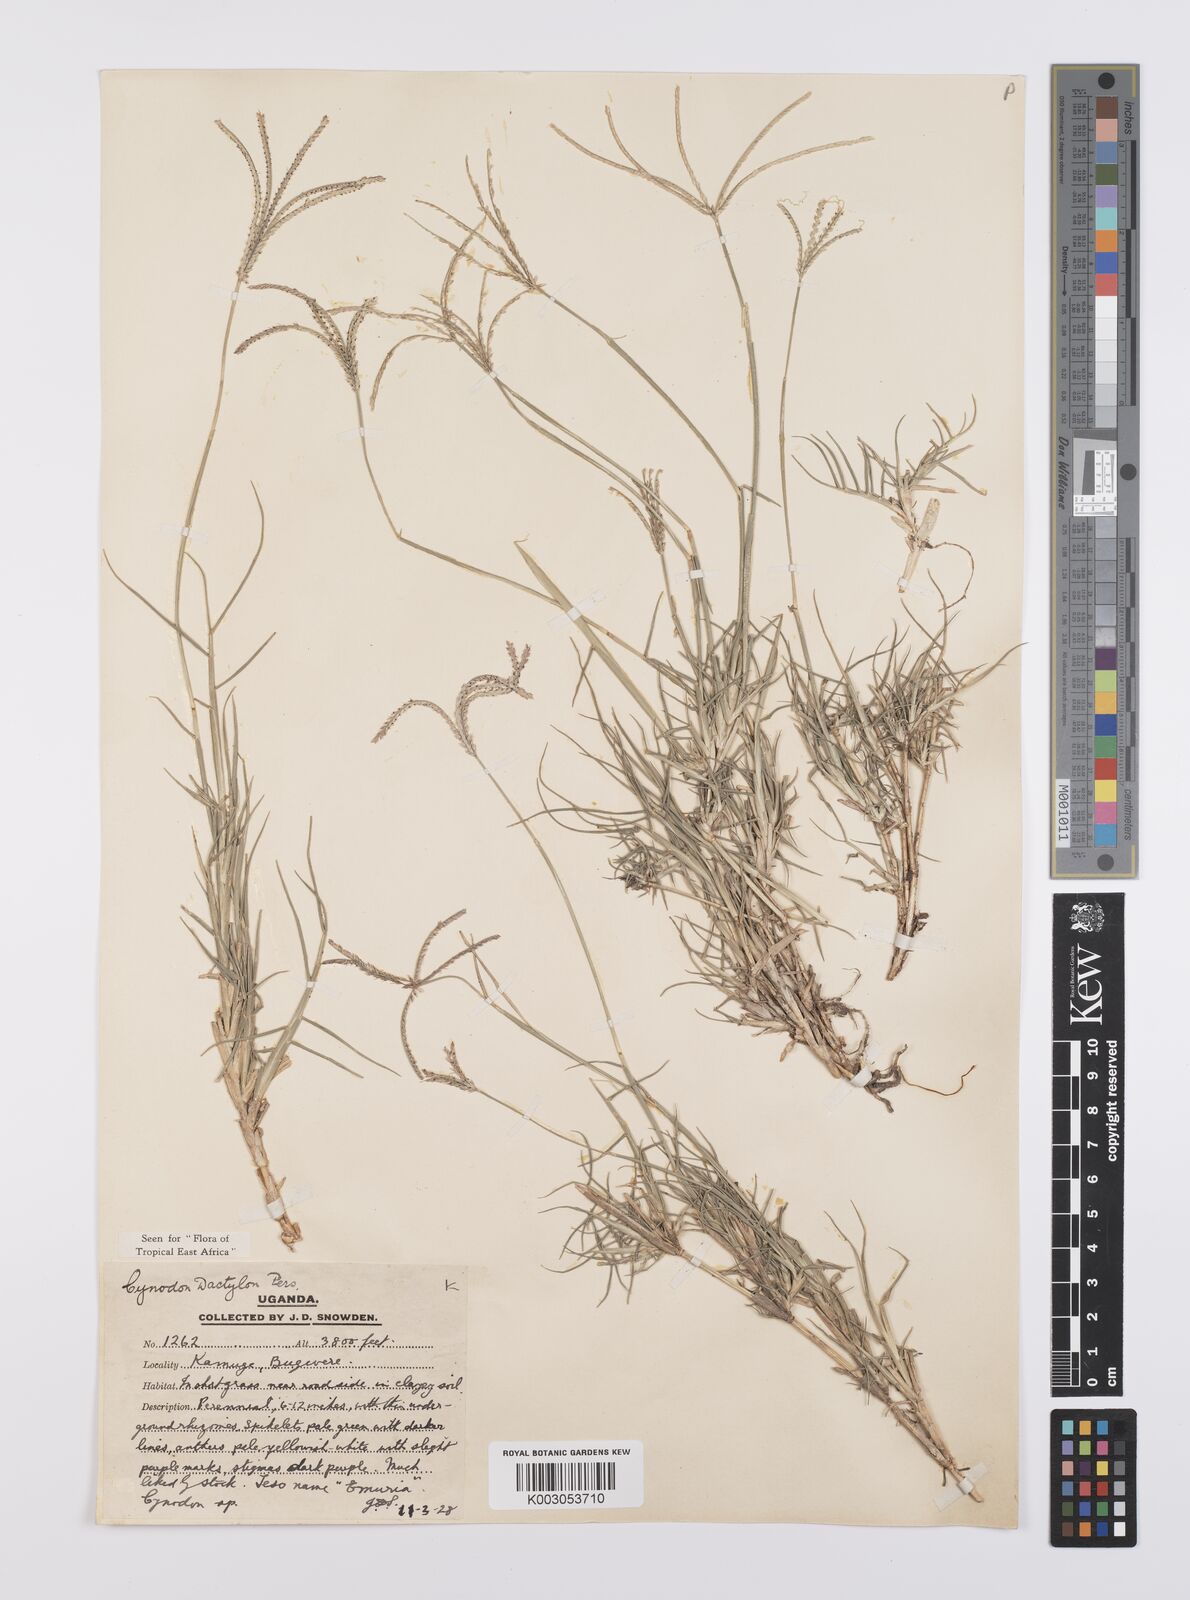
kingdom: Plantae
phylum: Tracheophyta
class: Liliopsida
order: Poales
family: Poaceae
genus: Cynodon
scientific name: Cynodon dactylon
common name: Bermuda grass
